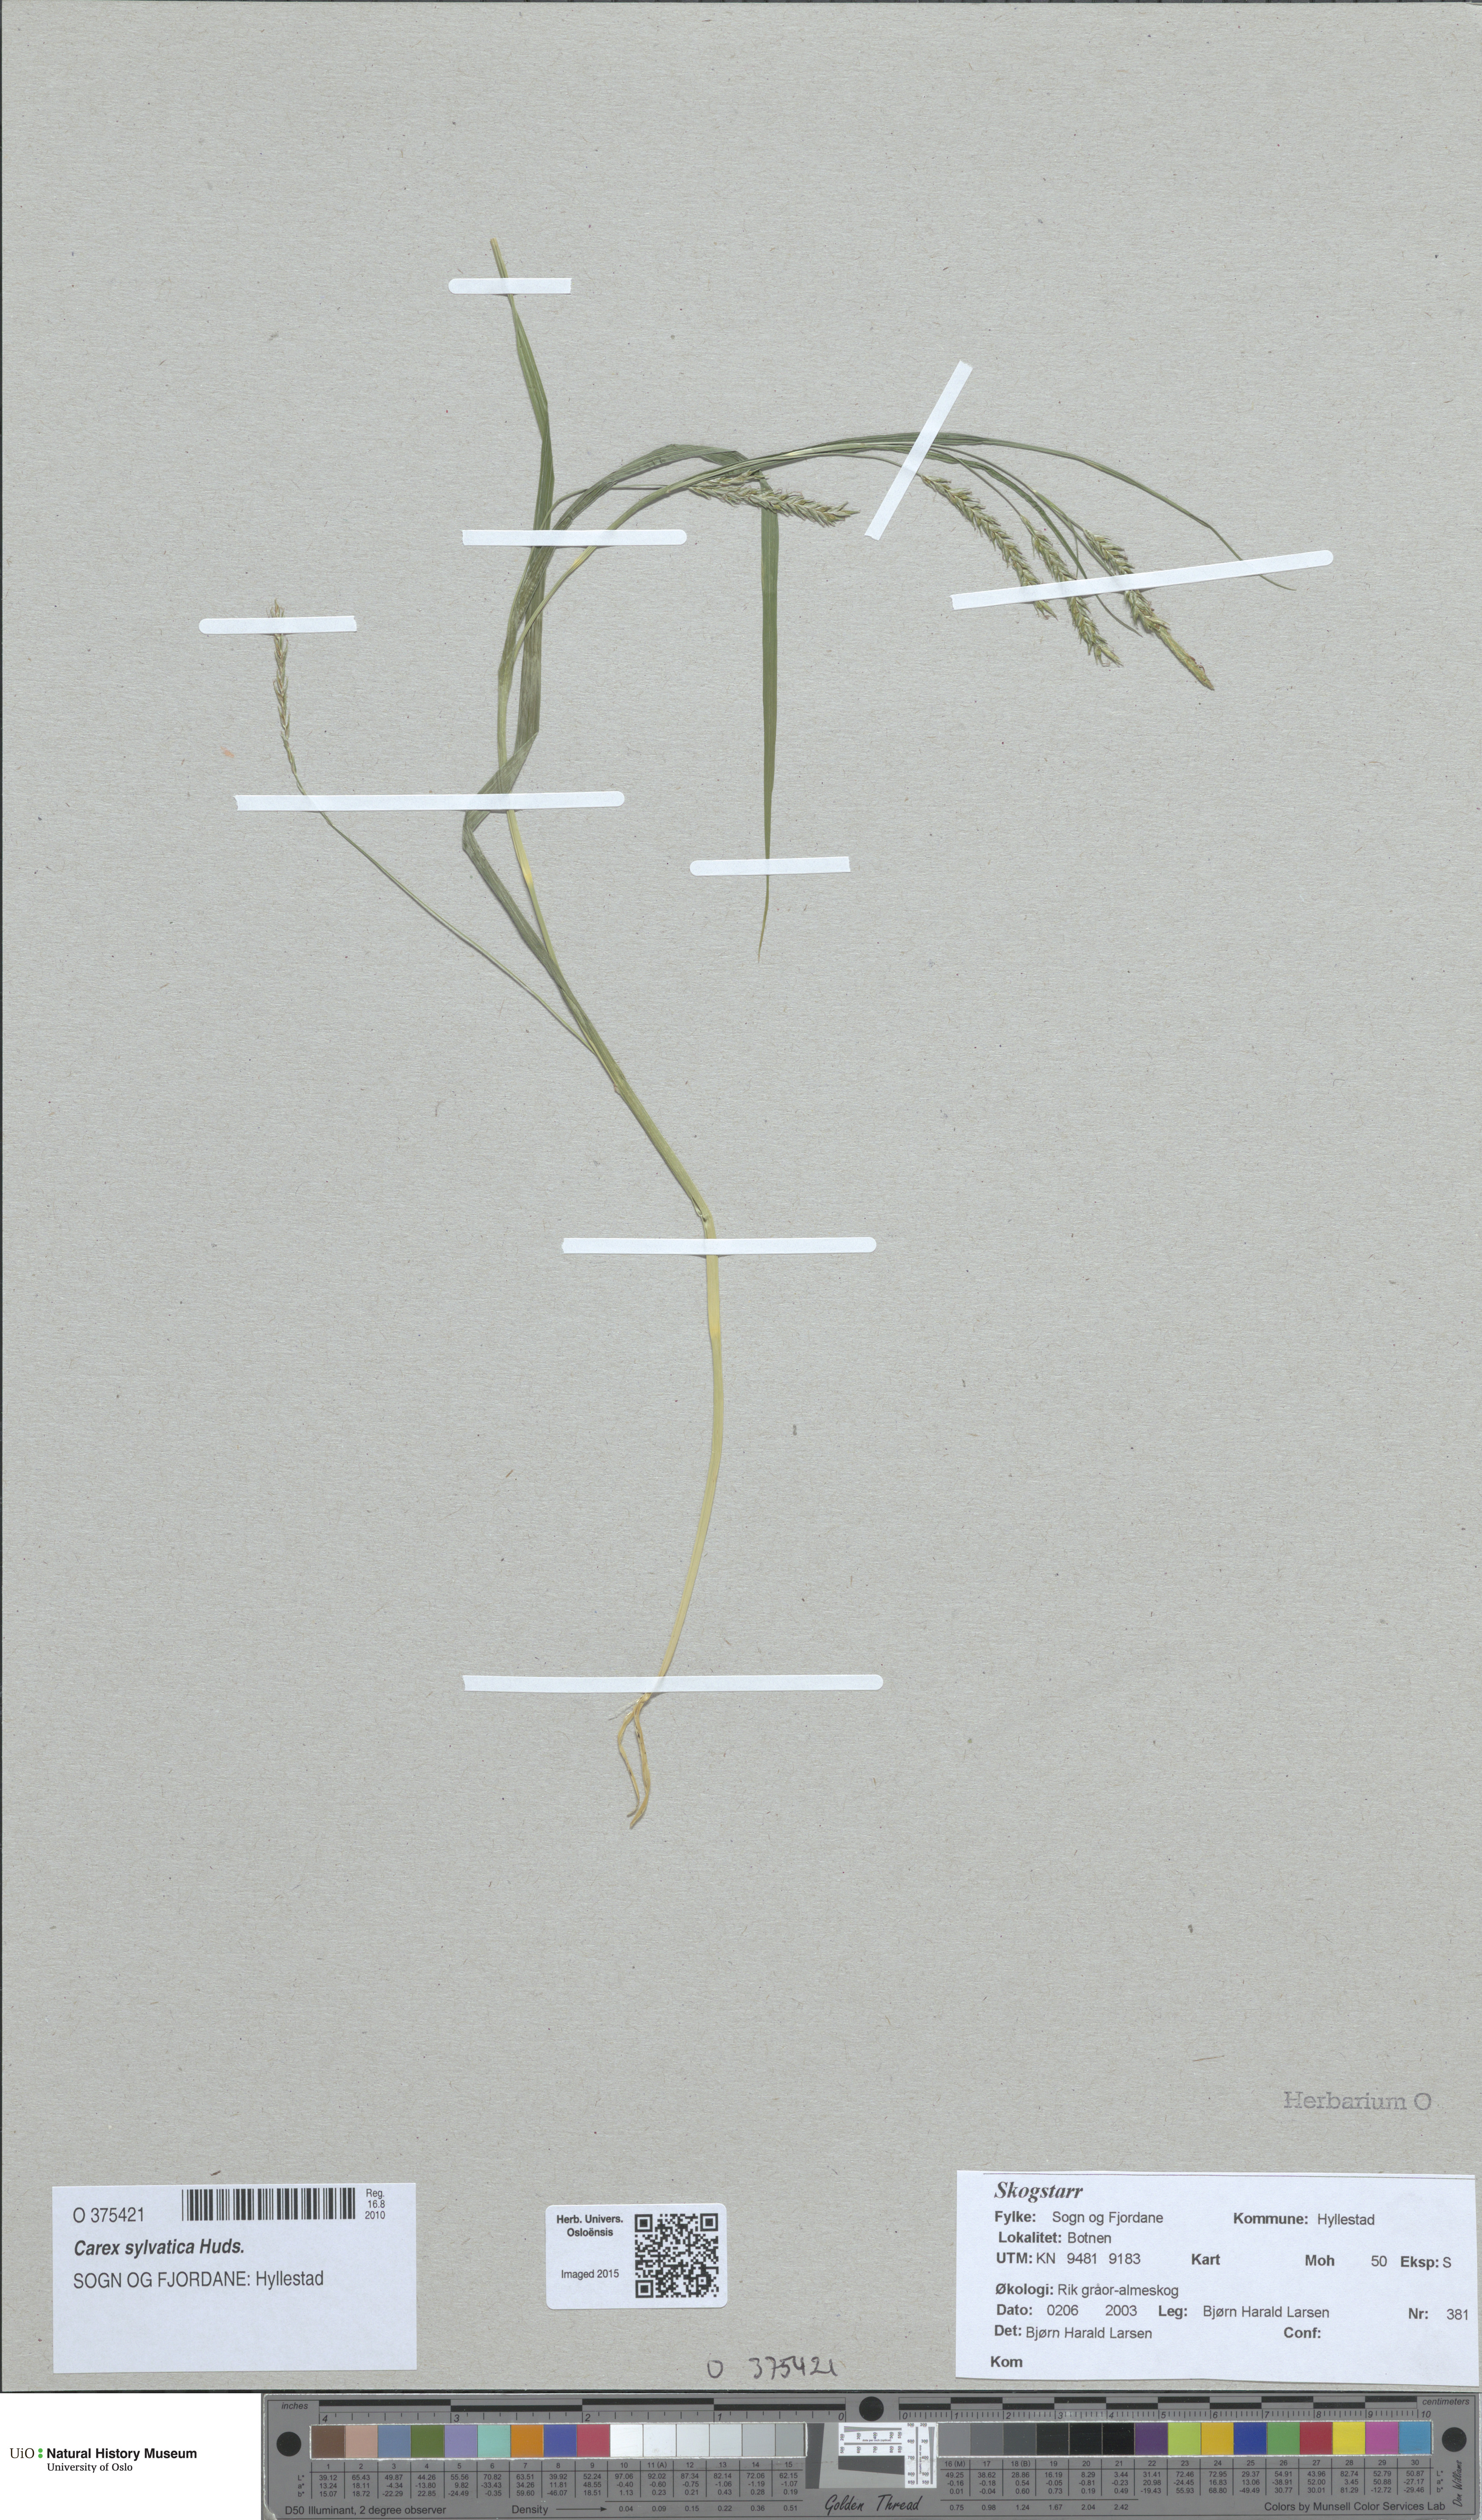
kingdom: Plantae
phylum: Tracheophyta
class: Liliopsida
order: Poales
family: Cyperaceae
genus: Carex
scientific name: Carex sylvatica
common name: Wood-sedge
